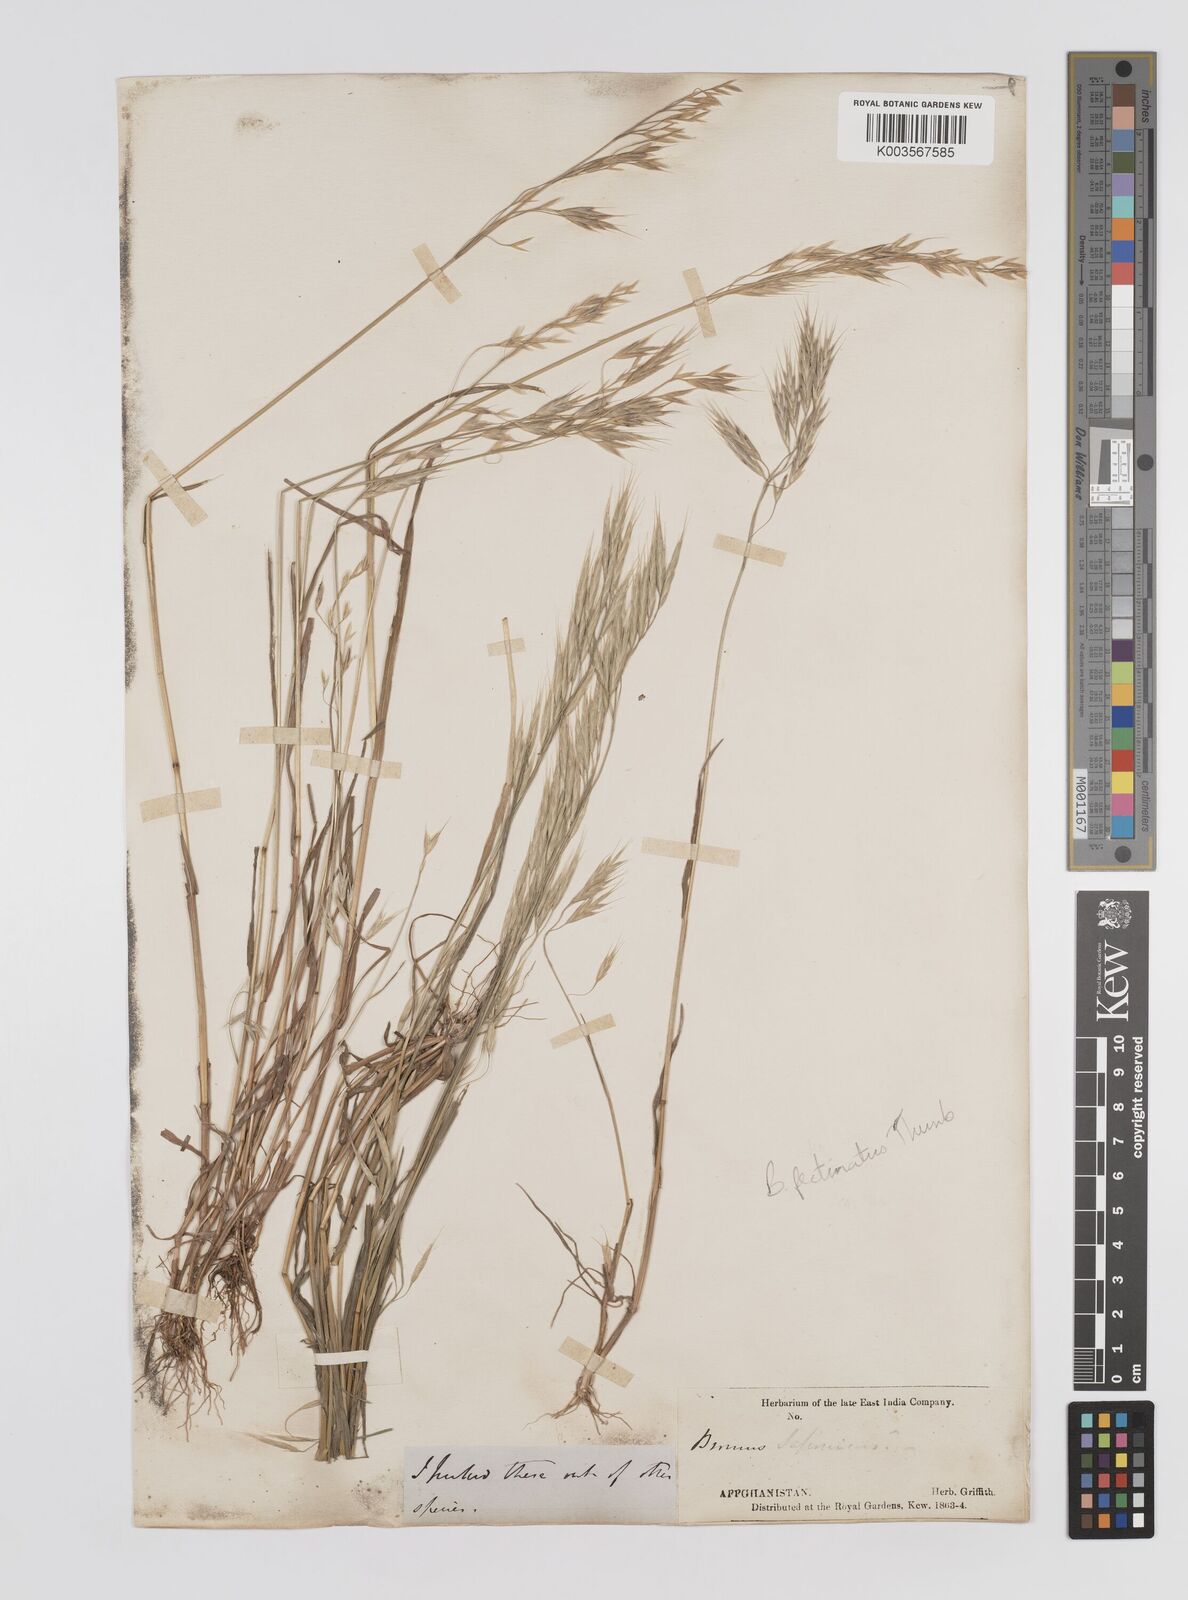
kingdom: Plantae
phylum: Tracheophyta
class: Liliopsida
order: Poales
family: Poaceae
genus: Bromus
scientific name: Bromus pectinatus
